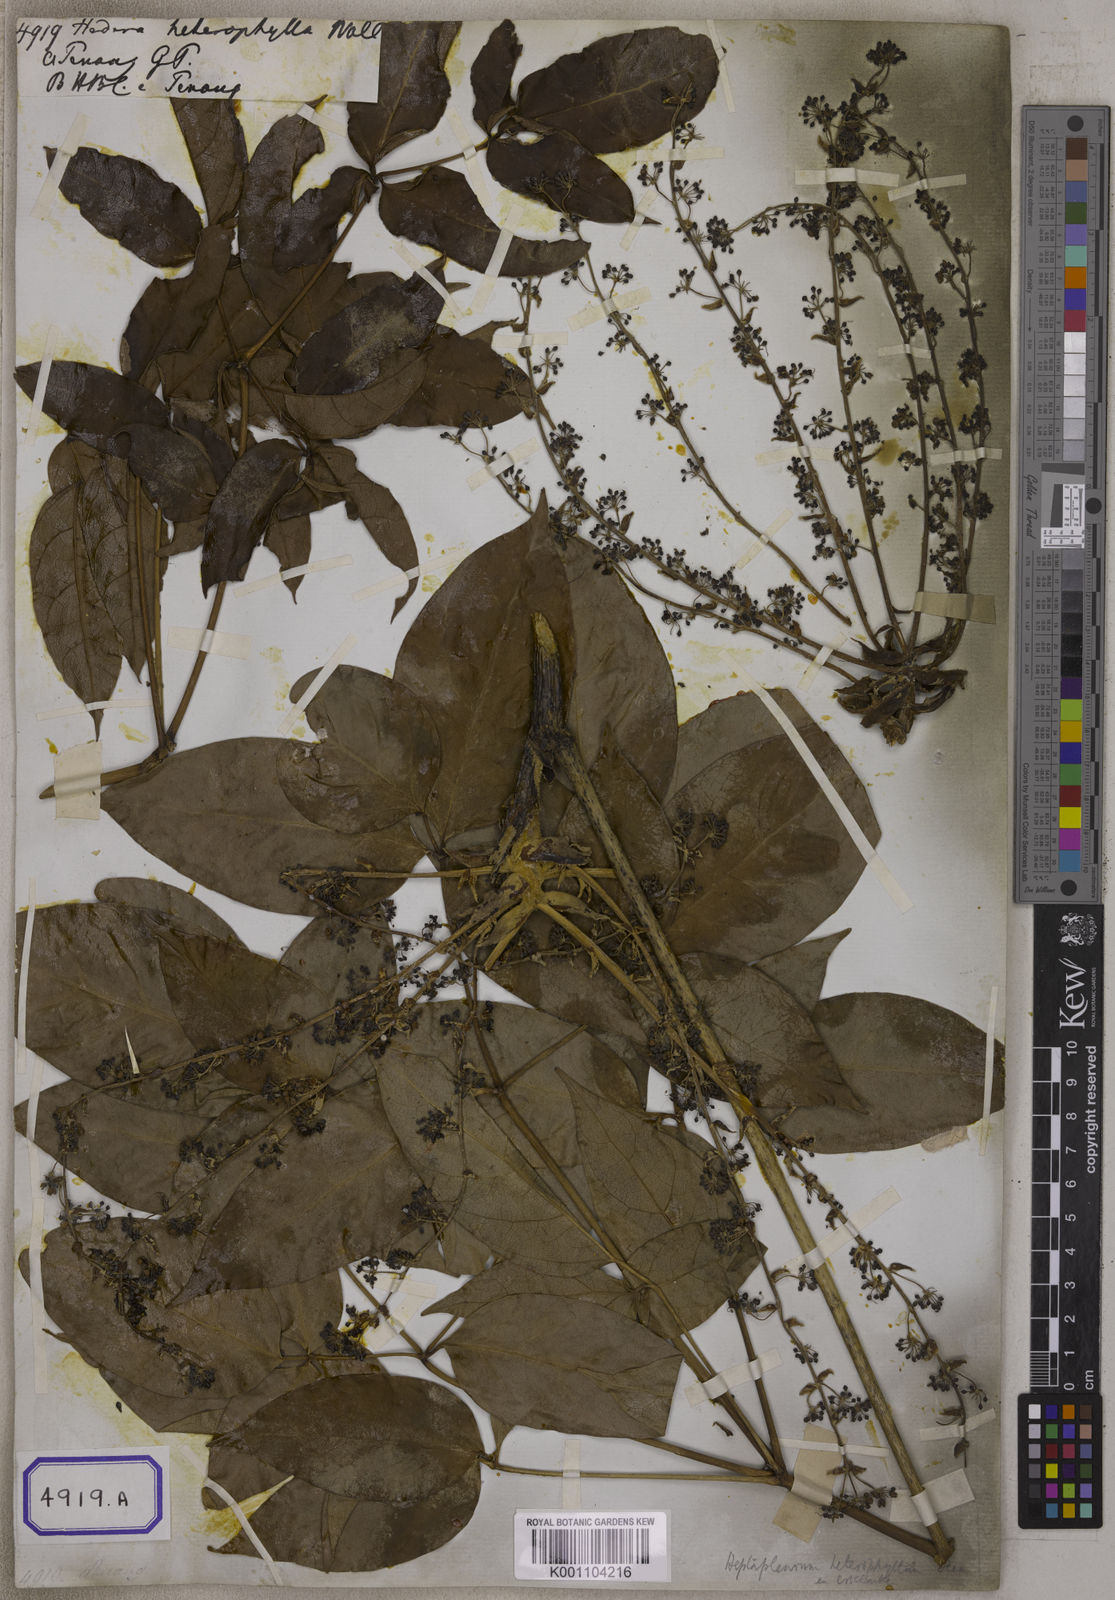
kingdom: Plantae
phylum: Tracheophyta
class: Magnoliopsida
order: Apiales
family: Araliaceae
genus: Hedera
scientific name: Hedera
